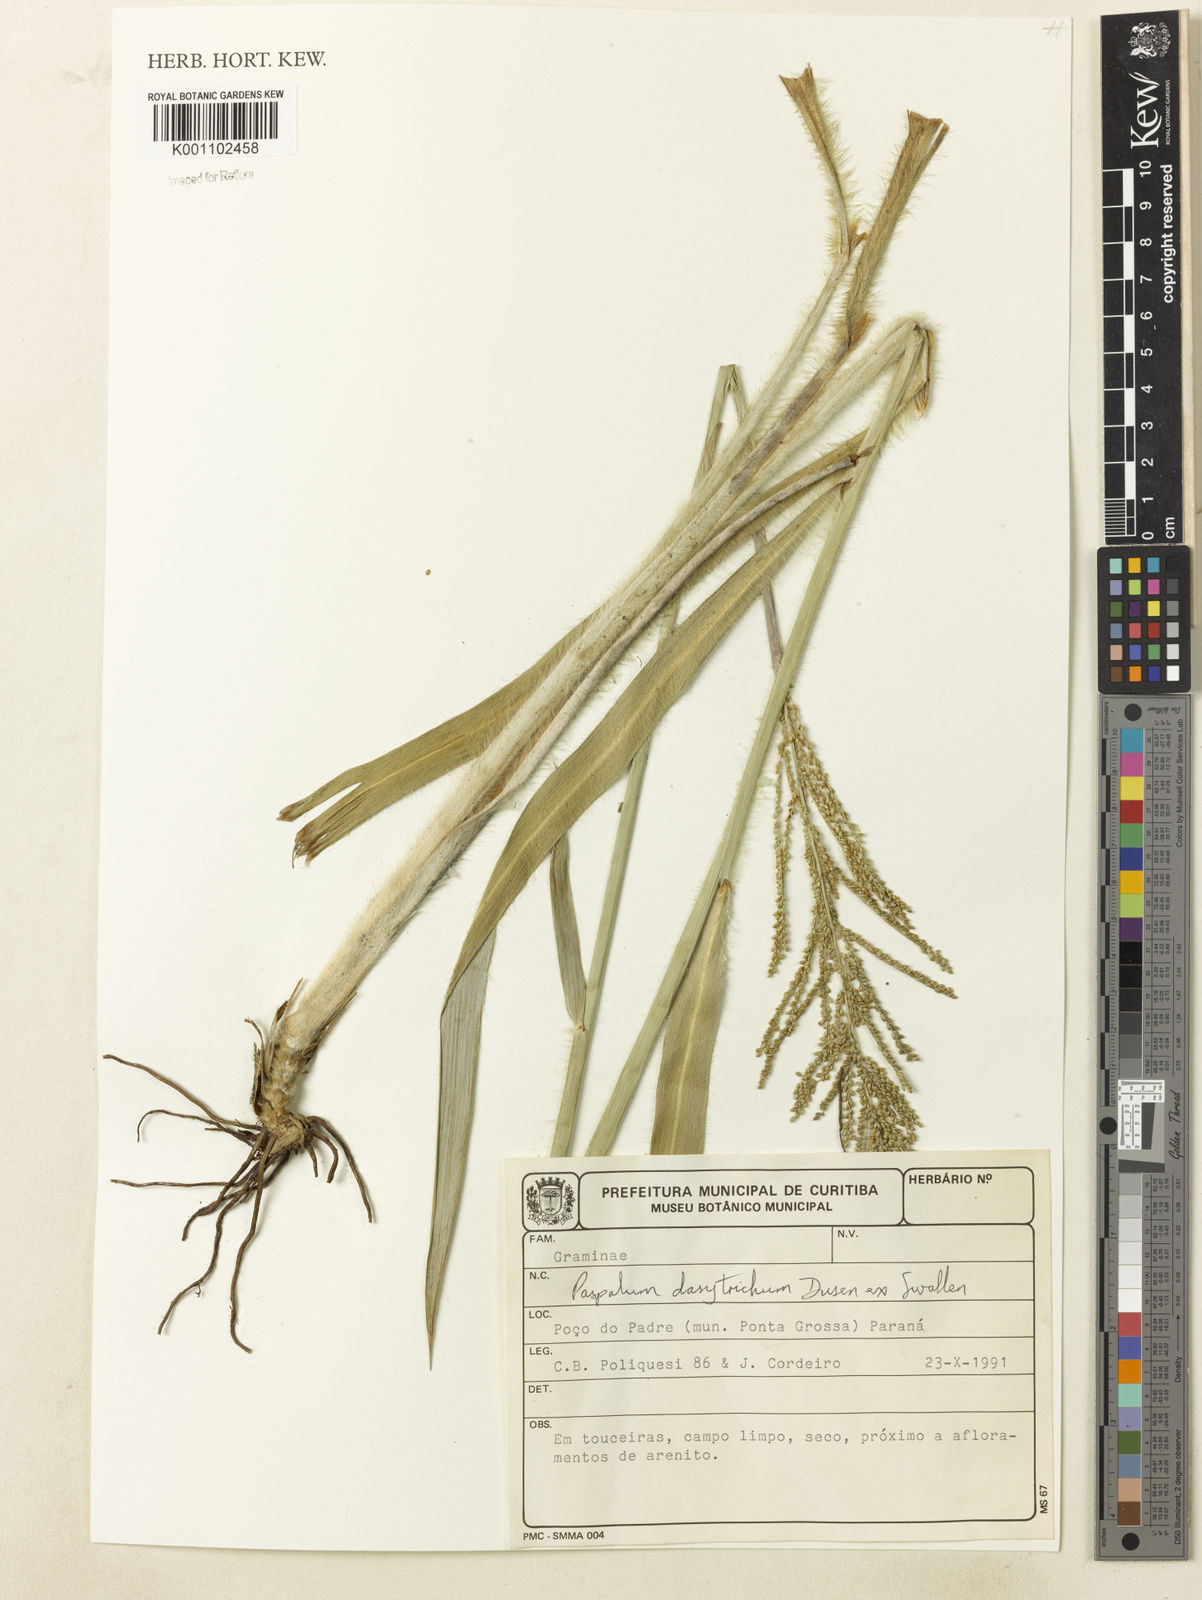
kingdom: Plantae
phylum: Tracheophyta
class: Liliopsida
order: Poales
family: Poaceae
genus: Paspalum
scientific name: Paspalum
